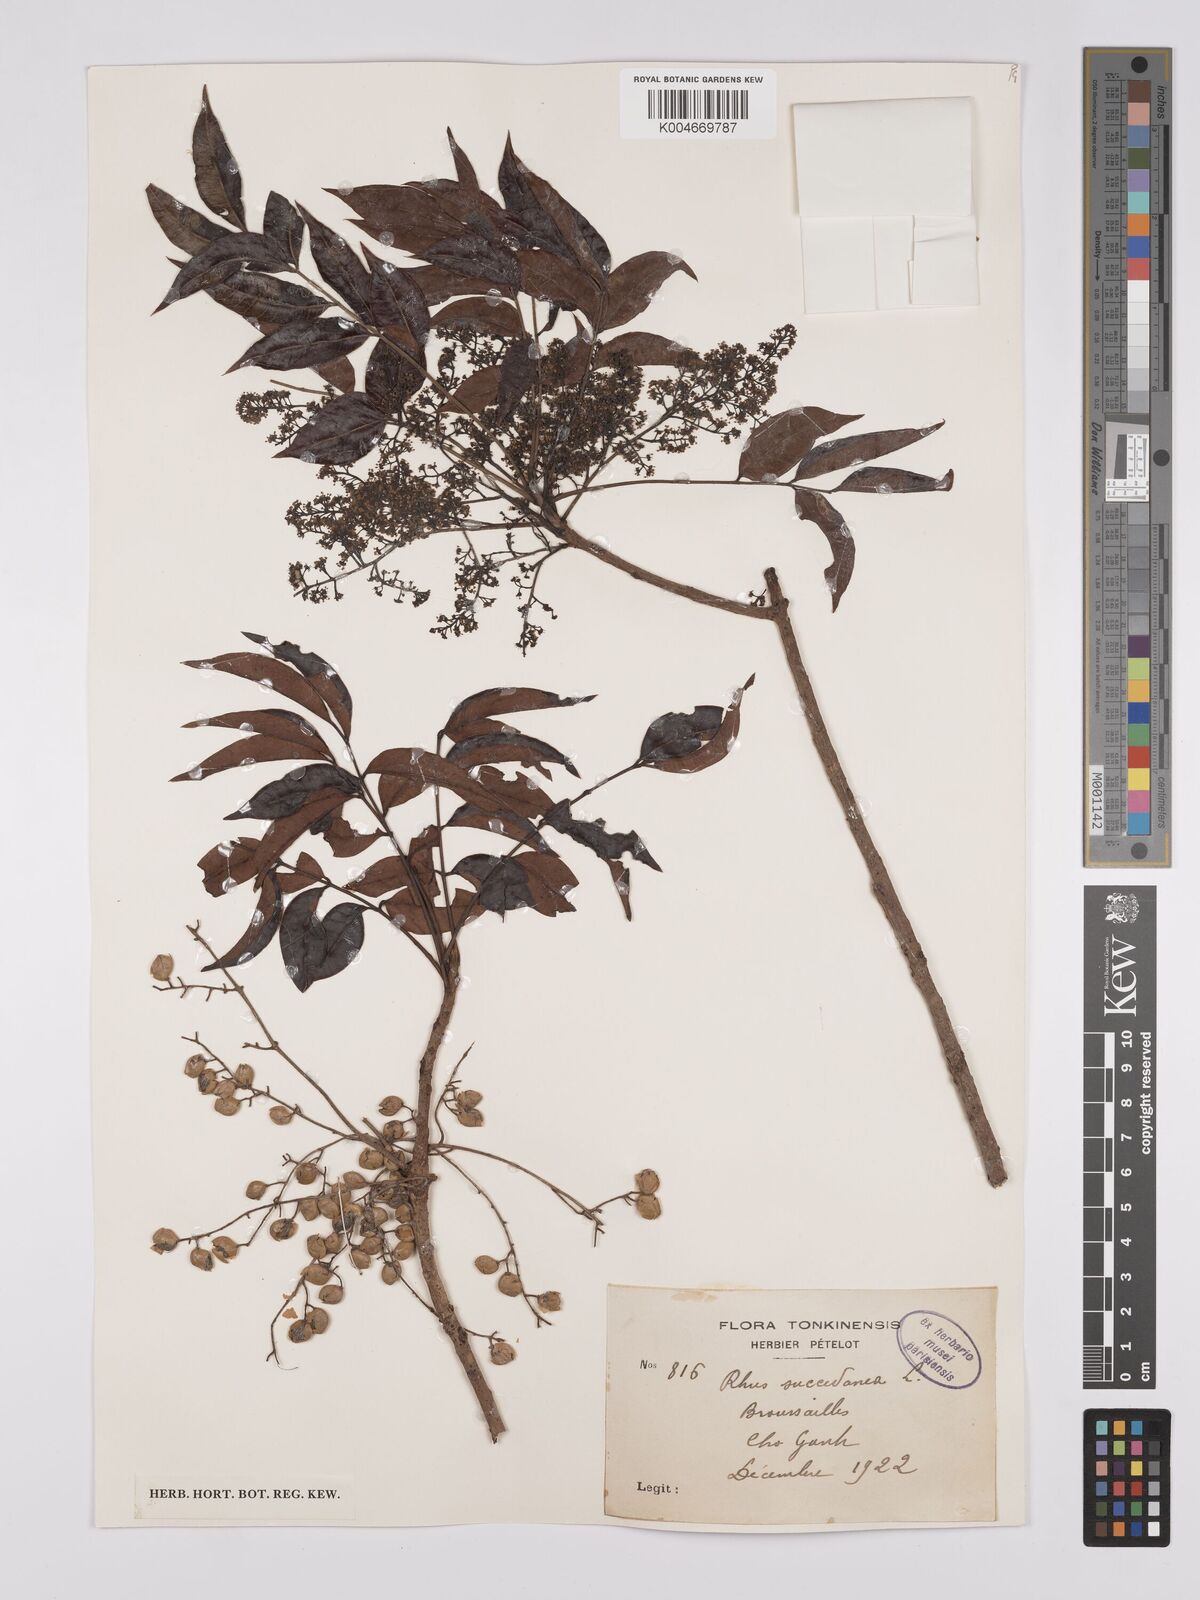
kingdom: Plantae
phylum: Tracheophyta
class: Magnoliopsida
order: Sapindales
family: Anacardiaceae
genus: Toxicodendron
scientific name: Toxicodendron succedaneum
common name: Wax tree
